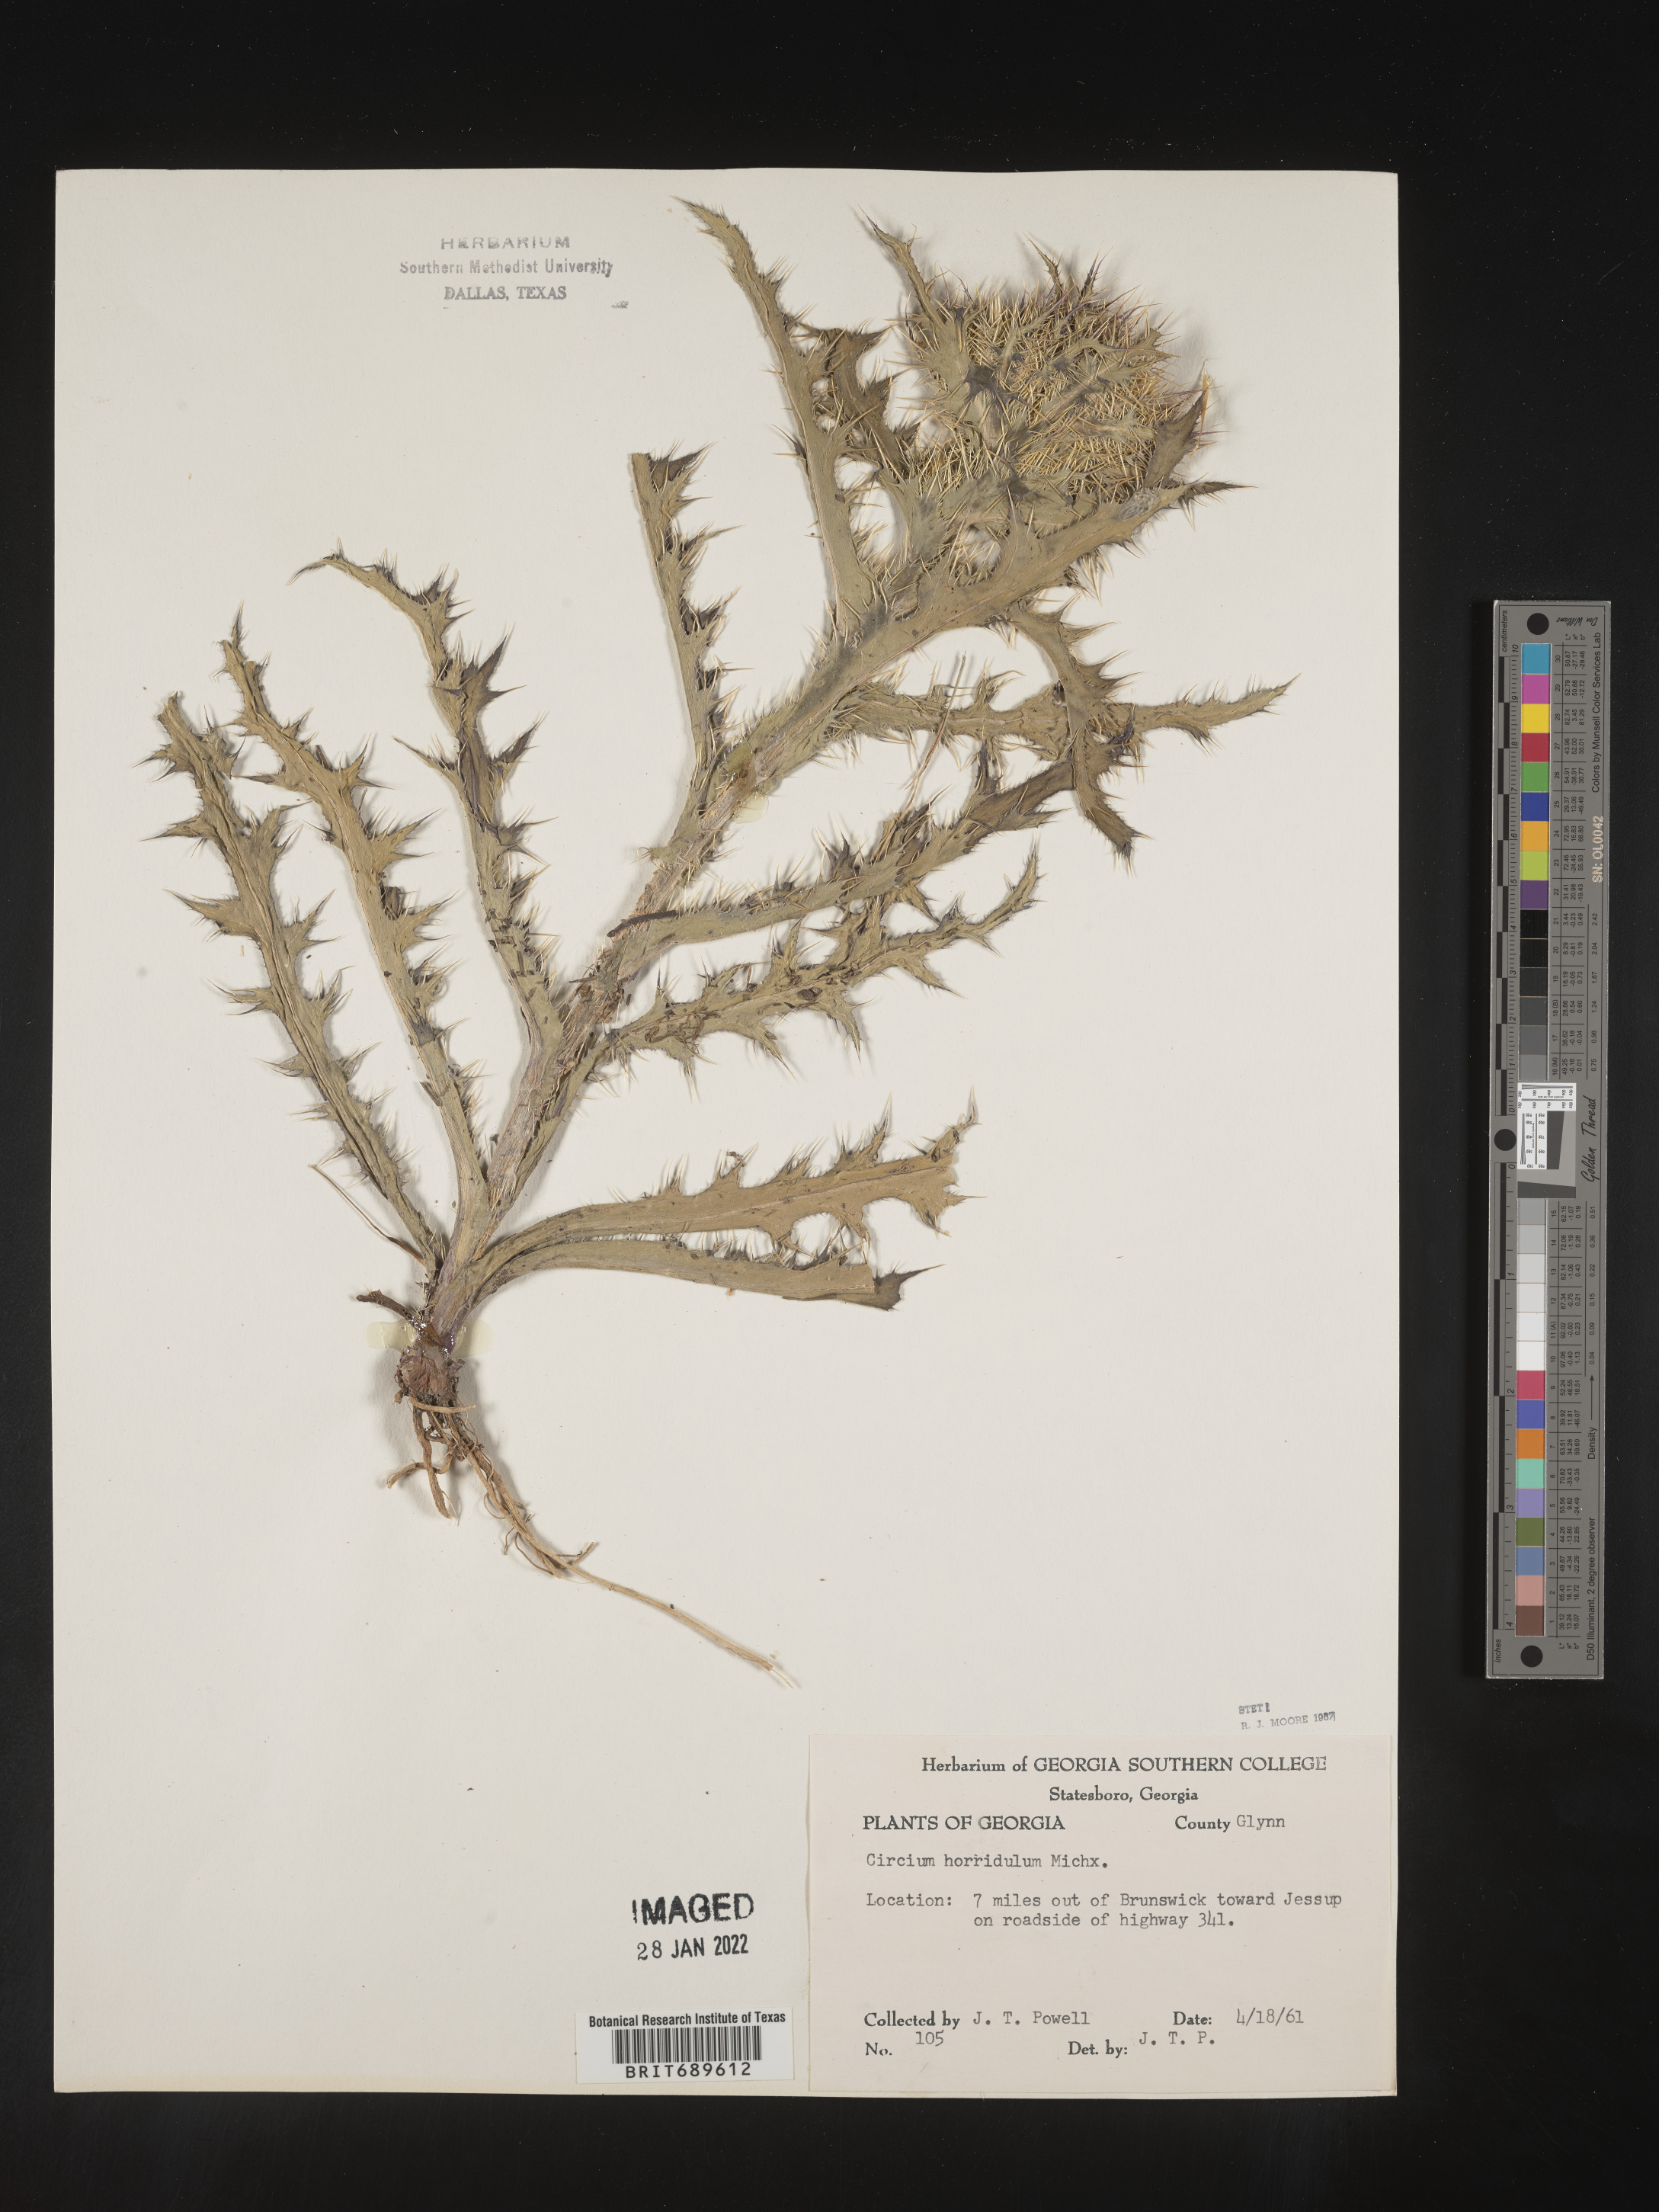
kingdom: Plantae
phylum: Tracheophyta
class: Magnoliopsida
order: Asterales
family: Asteraceae
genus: Cirsium
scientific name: Cirsium horridulum
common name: Bristly thistle
